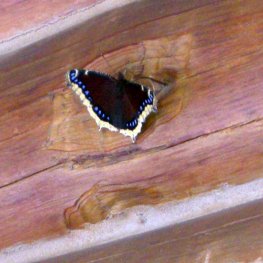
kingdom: Animalia
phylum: Arthropoda
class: Insecta
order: Lepidoptera
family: Nymphalidae
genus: Nymphalis
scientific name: Nymphalis antiopa
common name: Mourning Cloak
